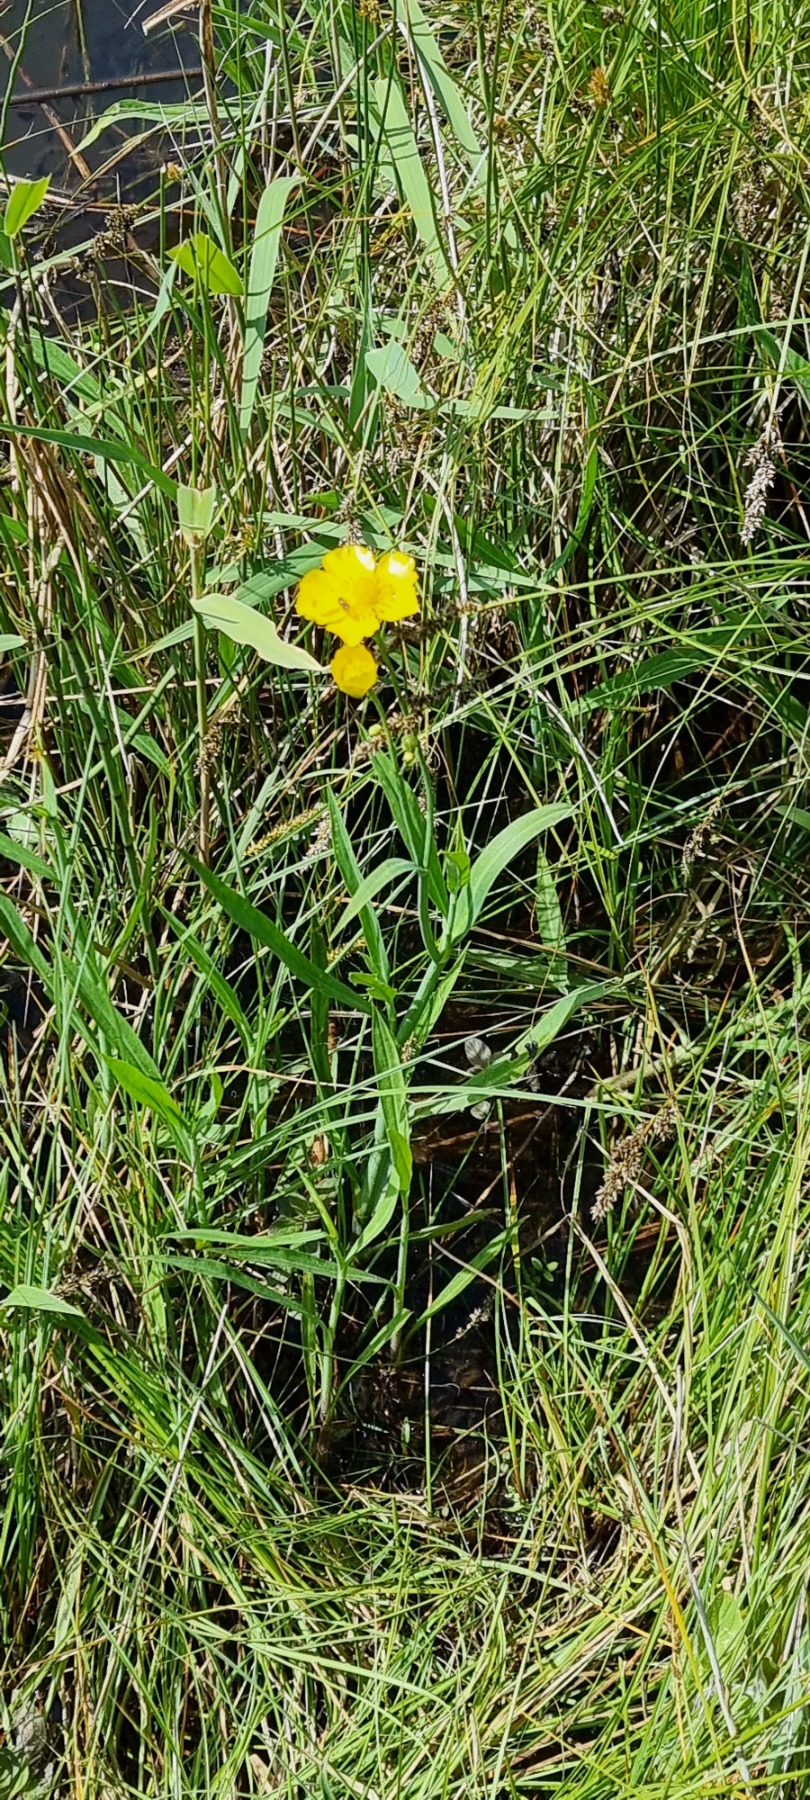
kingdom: Plantae
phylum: Tracheophyta
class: Magnoliopsida
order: Ranunculales
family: Ranunculaceae
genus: Ranunculus
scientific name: Ranunculus lingua
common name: Langbladet ranunkel
